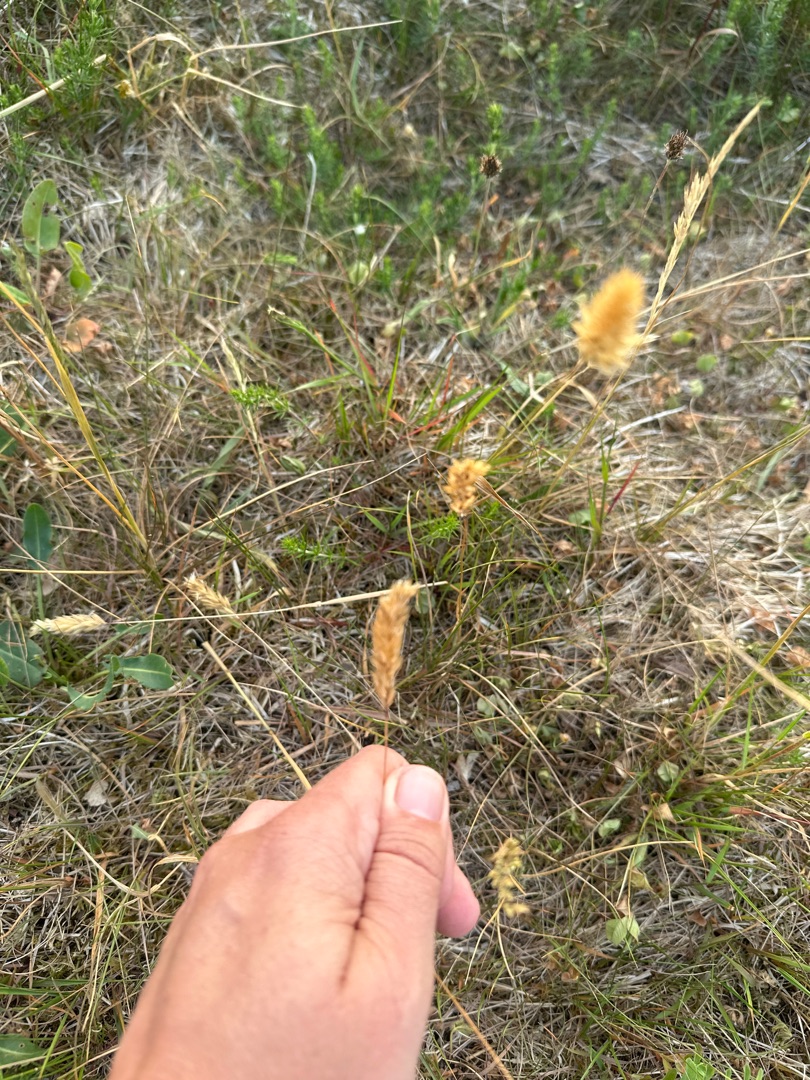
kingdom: Plantae
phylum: Tracheophyta
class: Liliopsida
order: Poales
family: Poaceae
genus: Anthoxanthum
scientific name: Anthoxanthum odoratum
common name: Vellugtende gulaks
